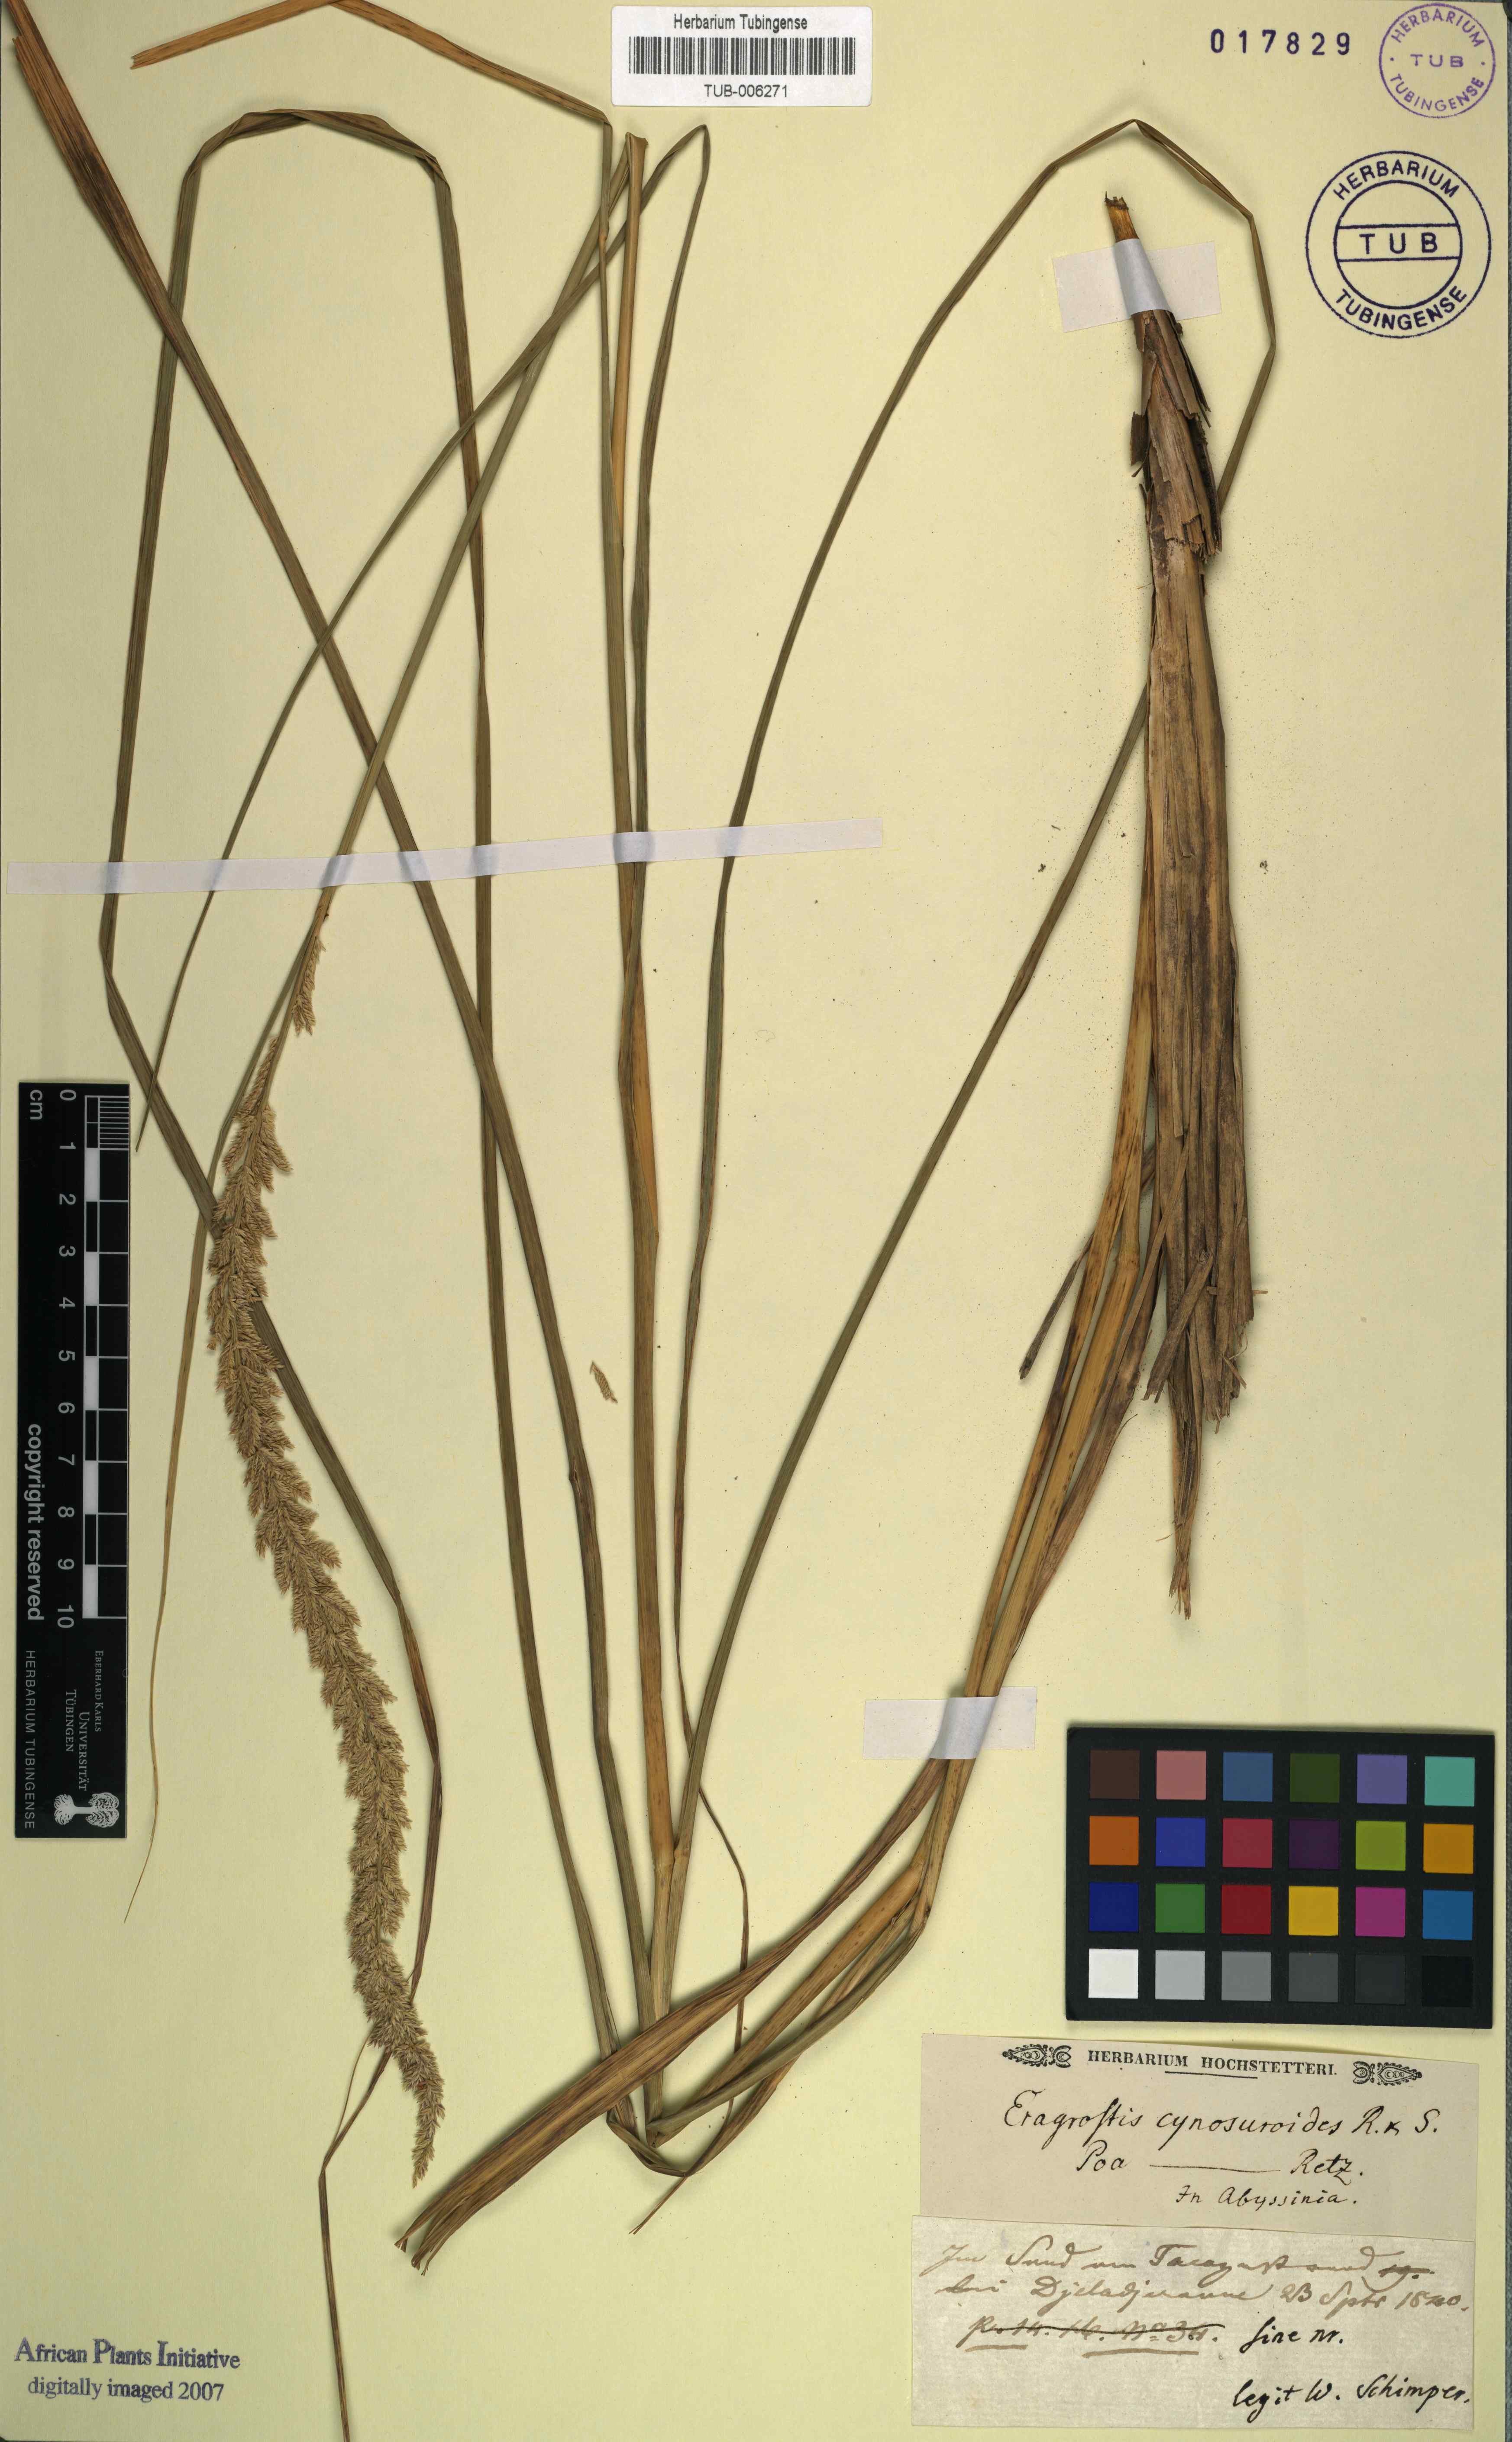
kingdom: Plantae
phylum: Tracheophyta
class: Liliopsida
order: Poales
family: Poaceae
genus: Desmostachya
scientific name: Desmostachya bipinnata
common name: Crowfoot grass
